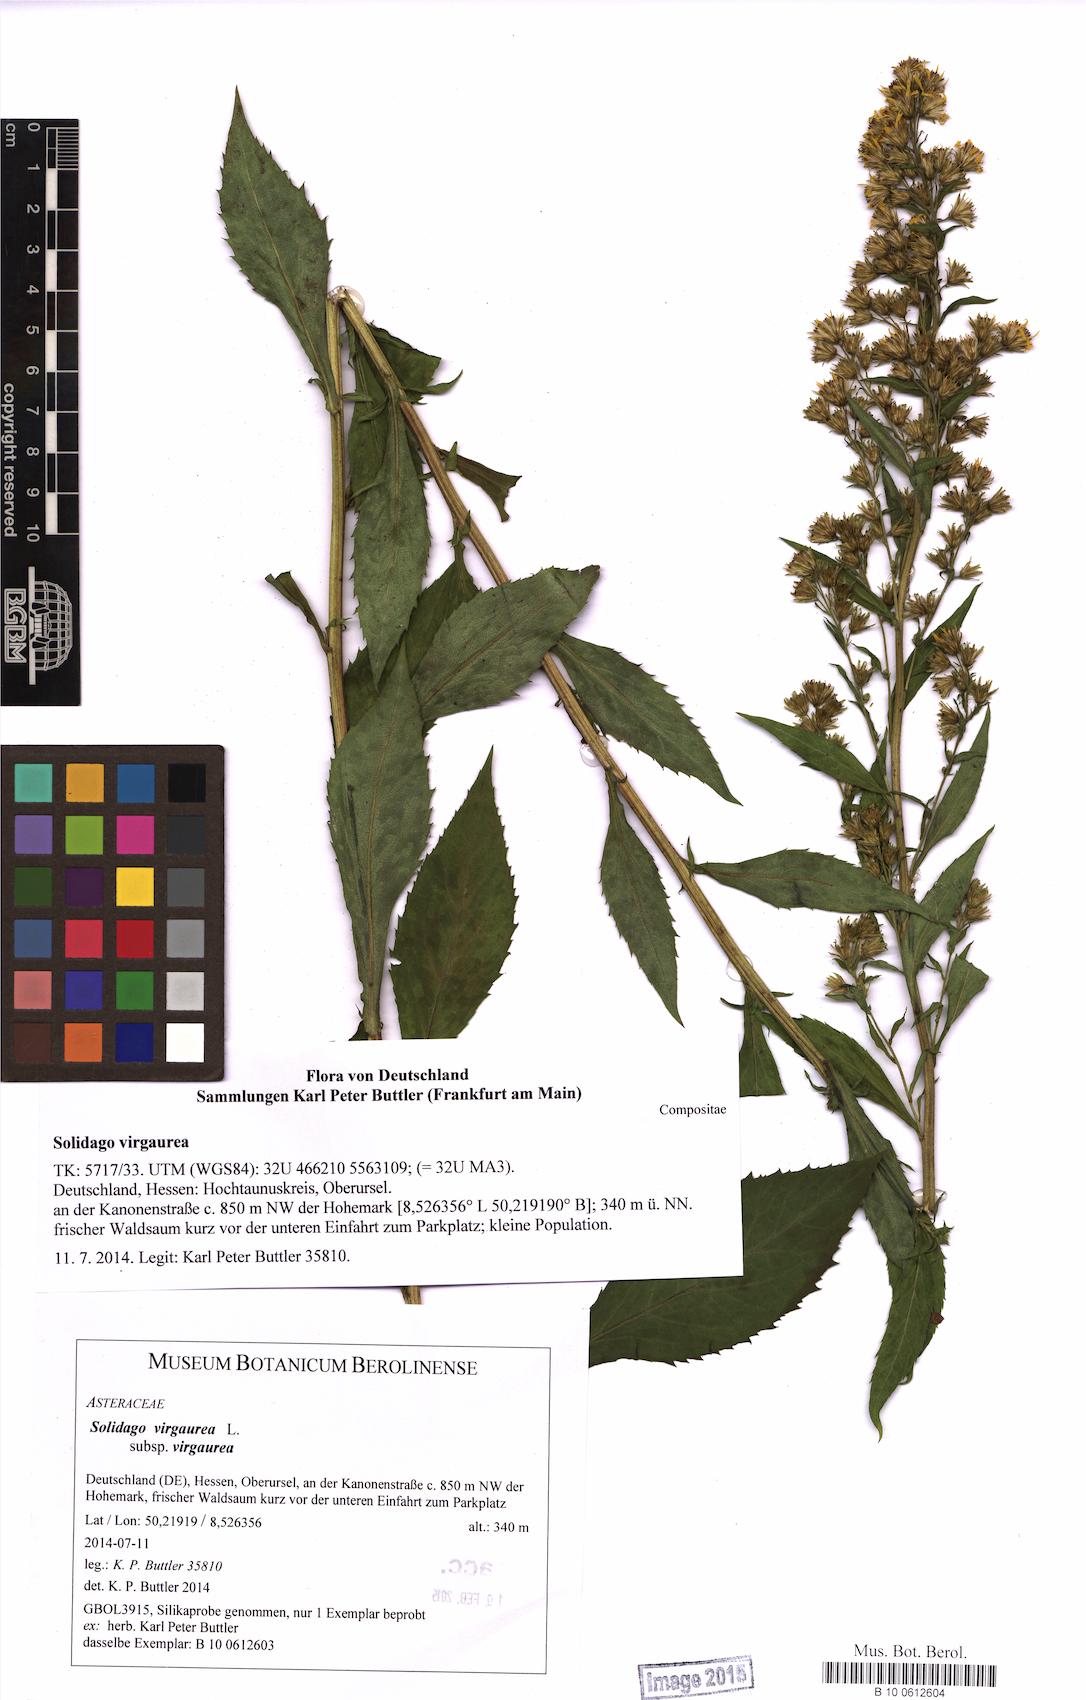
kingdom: Plantae
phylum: Tracheophyta
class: Magnoliopsida
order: Asterales
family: Asteraceae
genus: Solidago
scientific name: Solidago virgaurea
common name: Goldenrod
